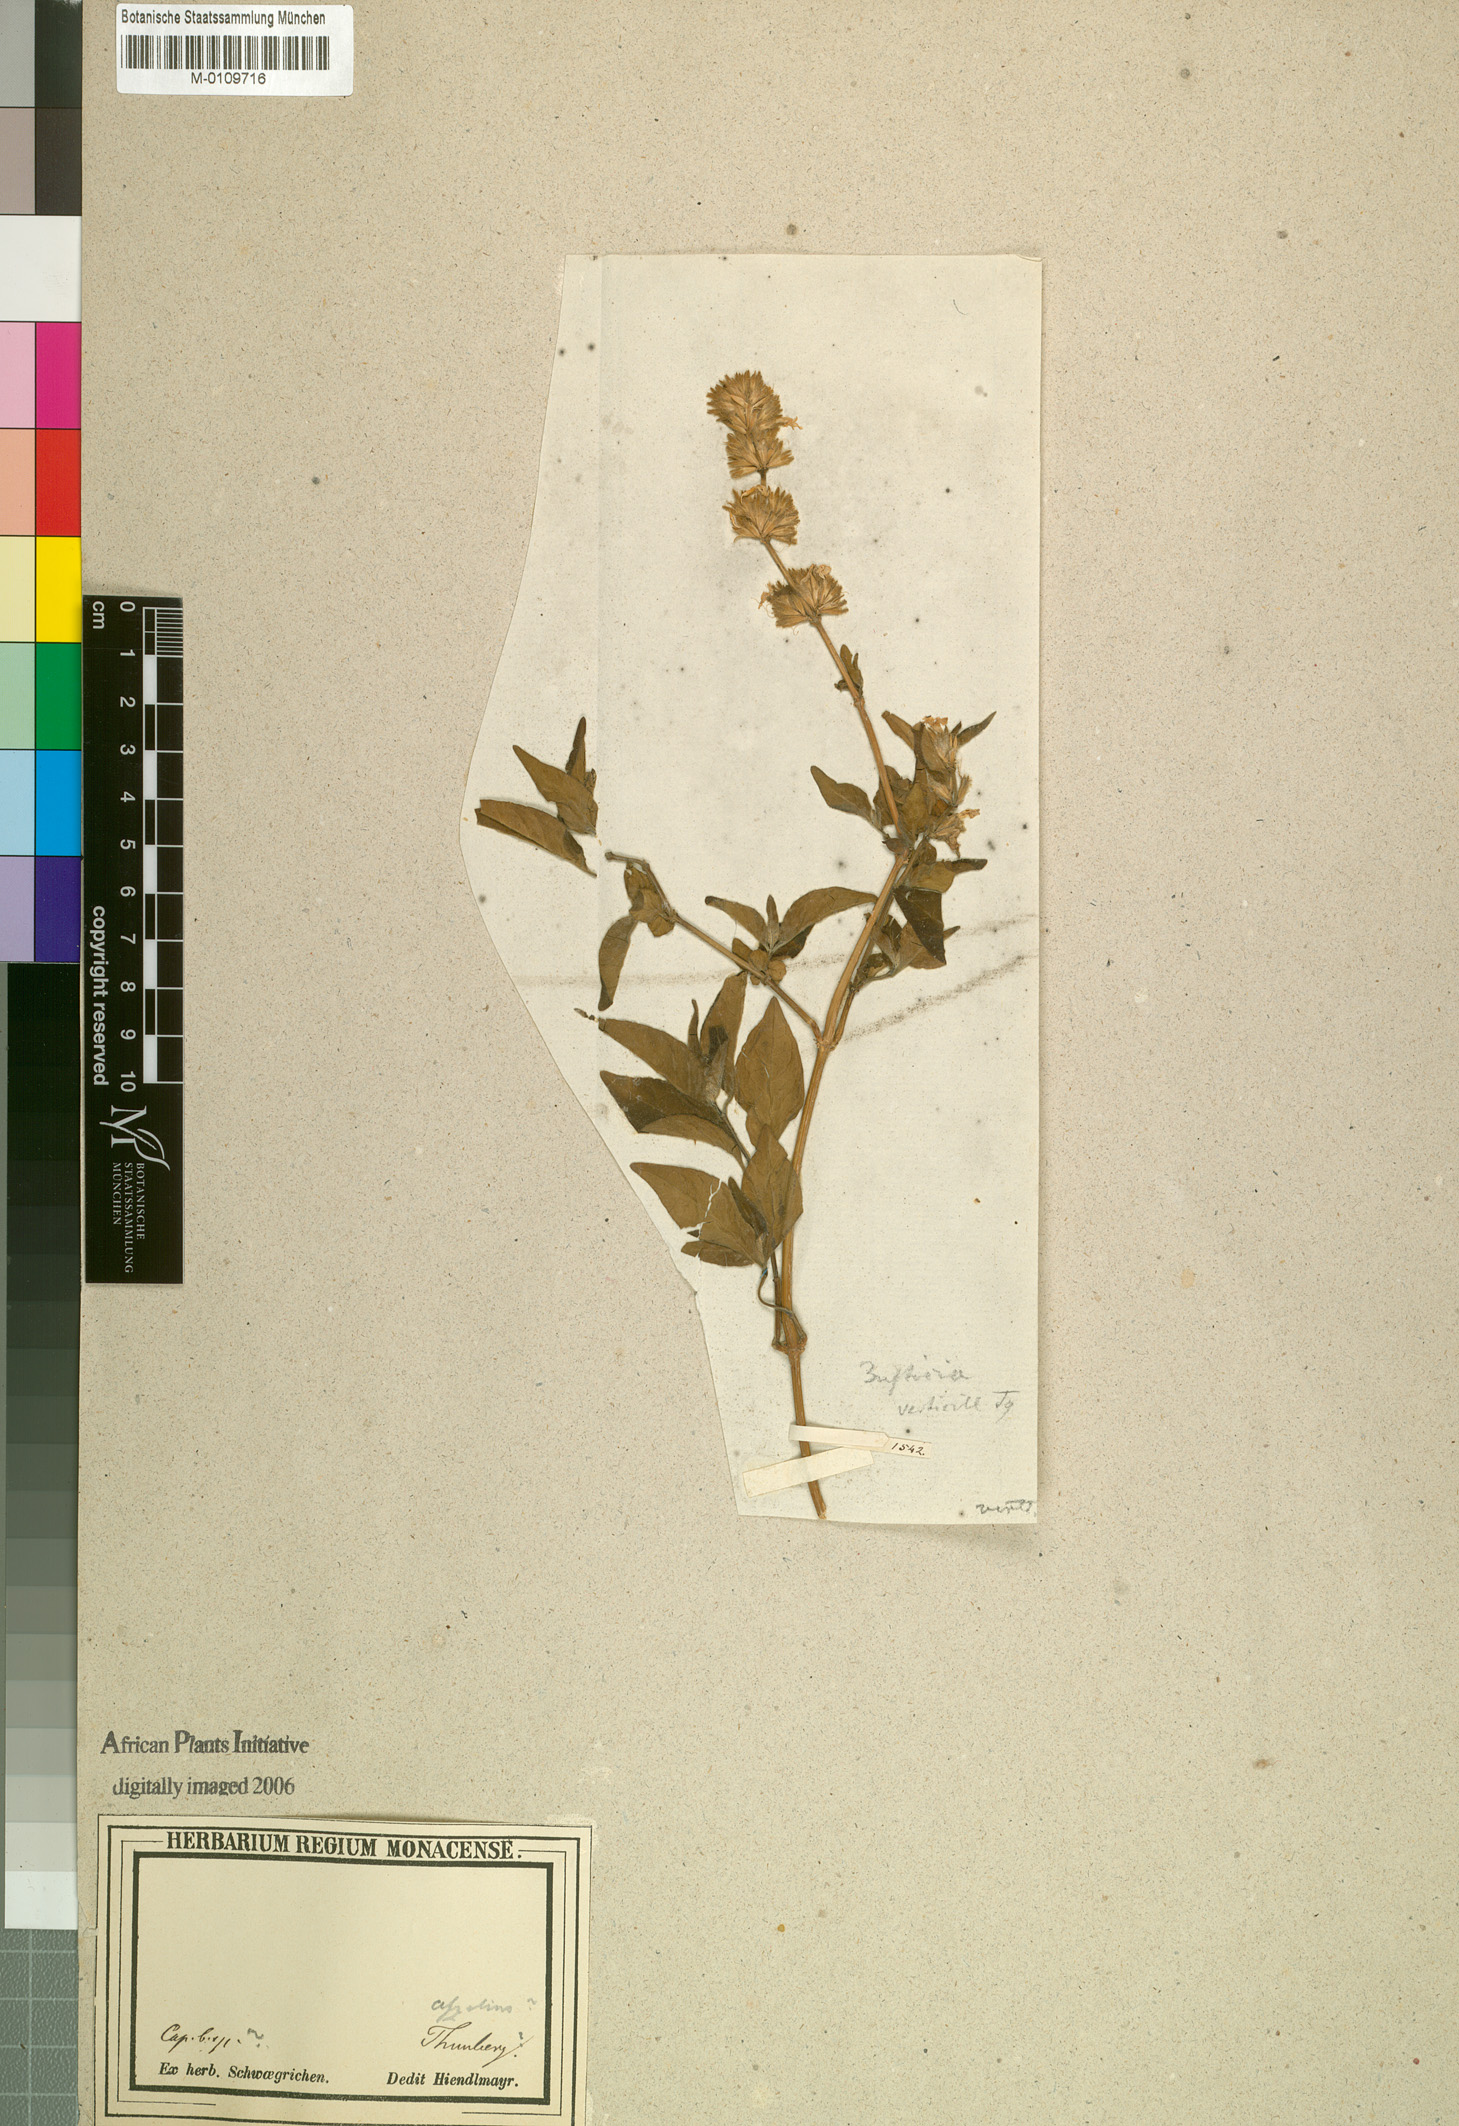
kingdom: Plantae
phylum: Tracheophyta
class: Magnoliopsida
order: Lamiales
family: Acanthaceae
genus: Hypoestes
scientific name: Hypoestes aristata
